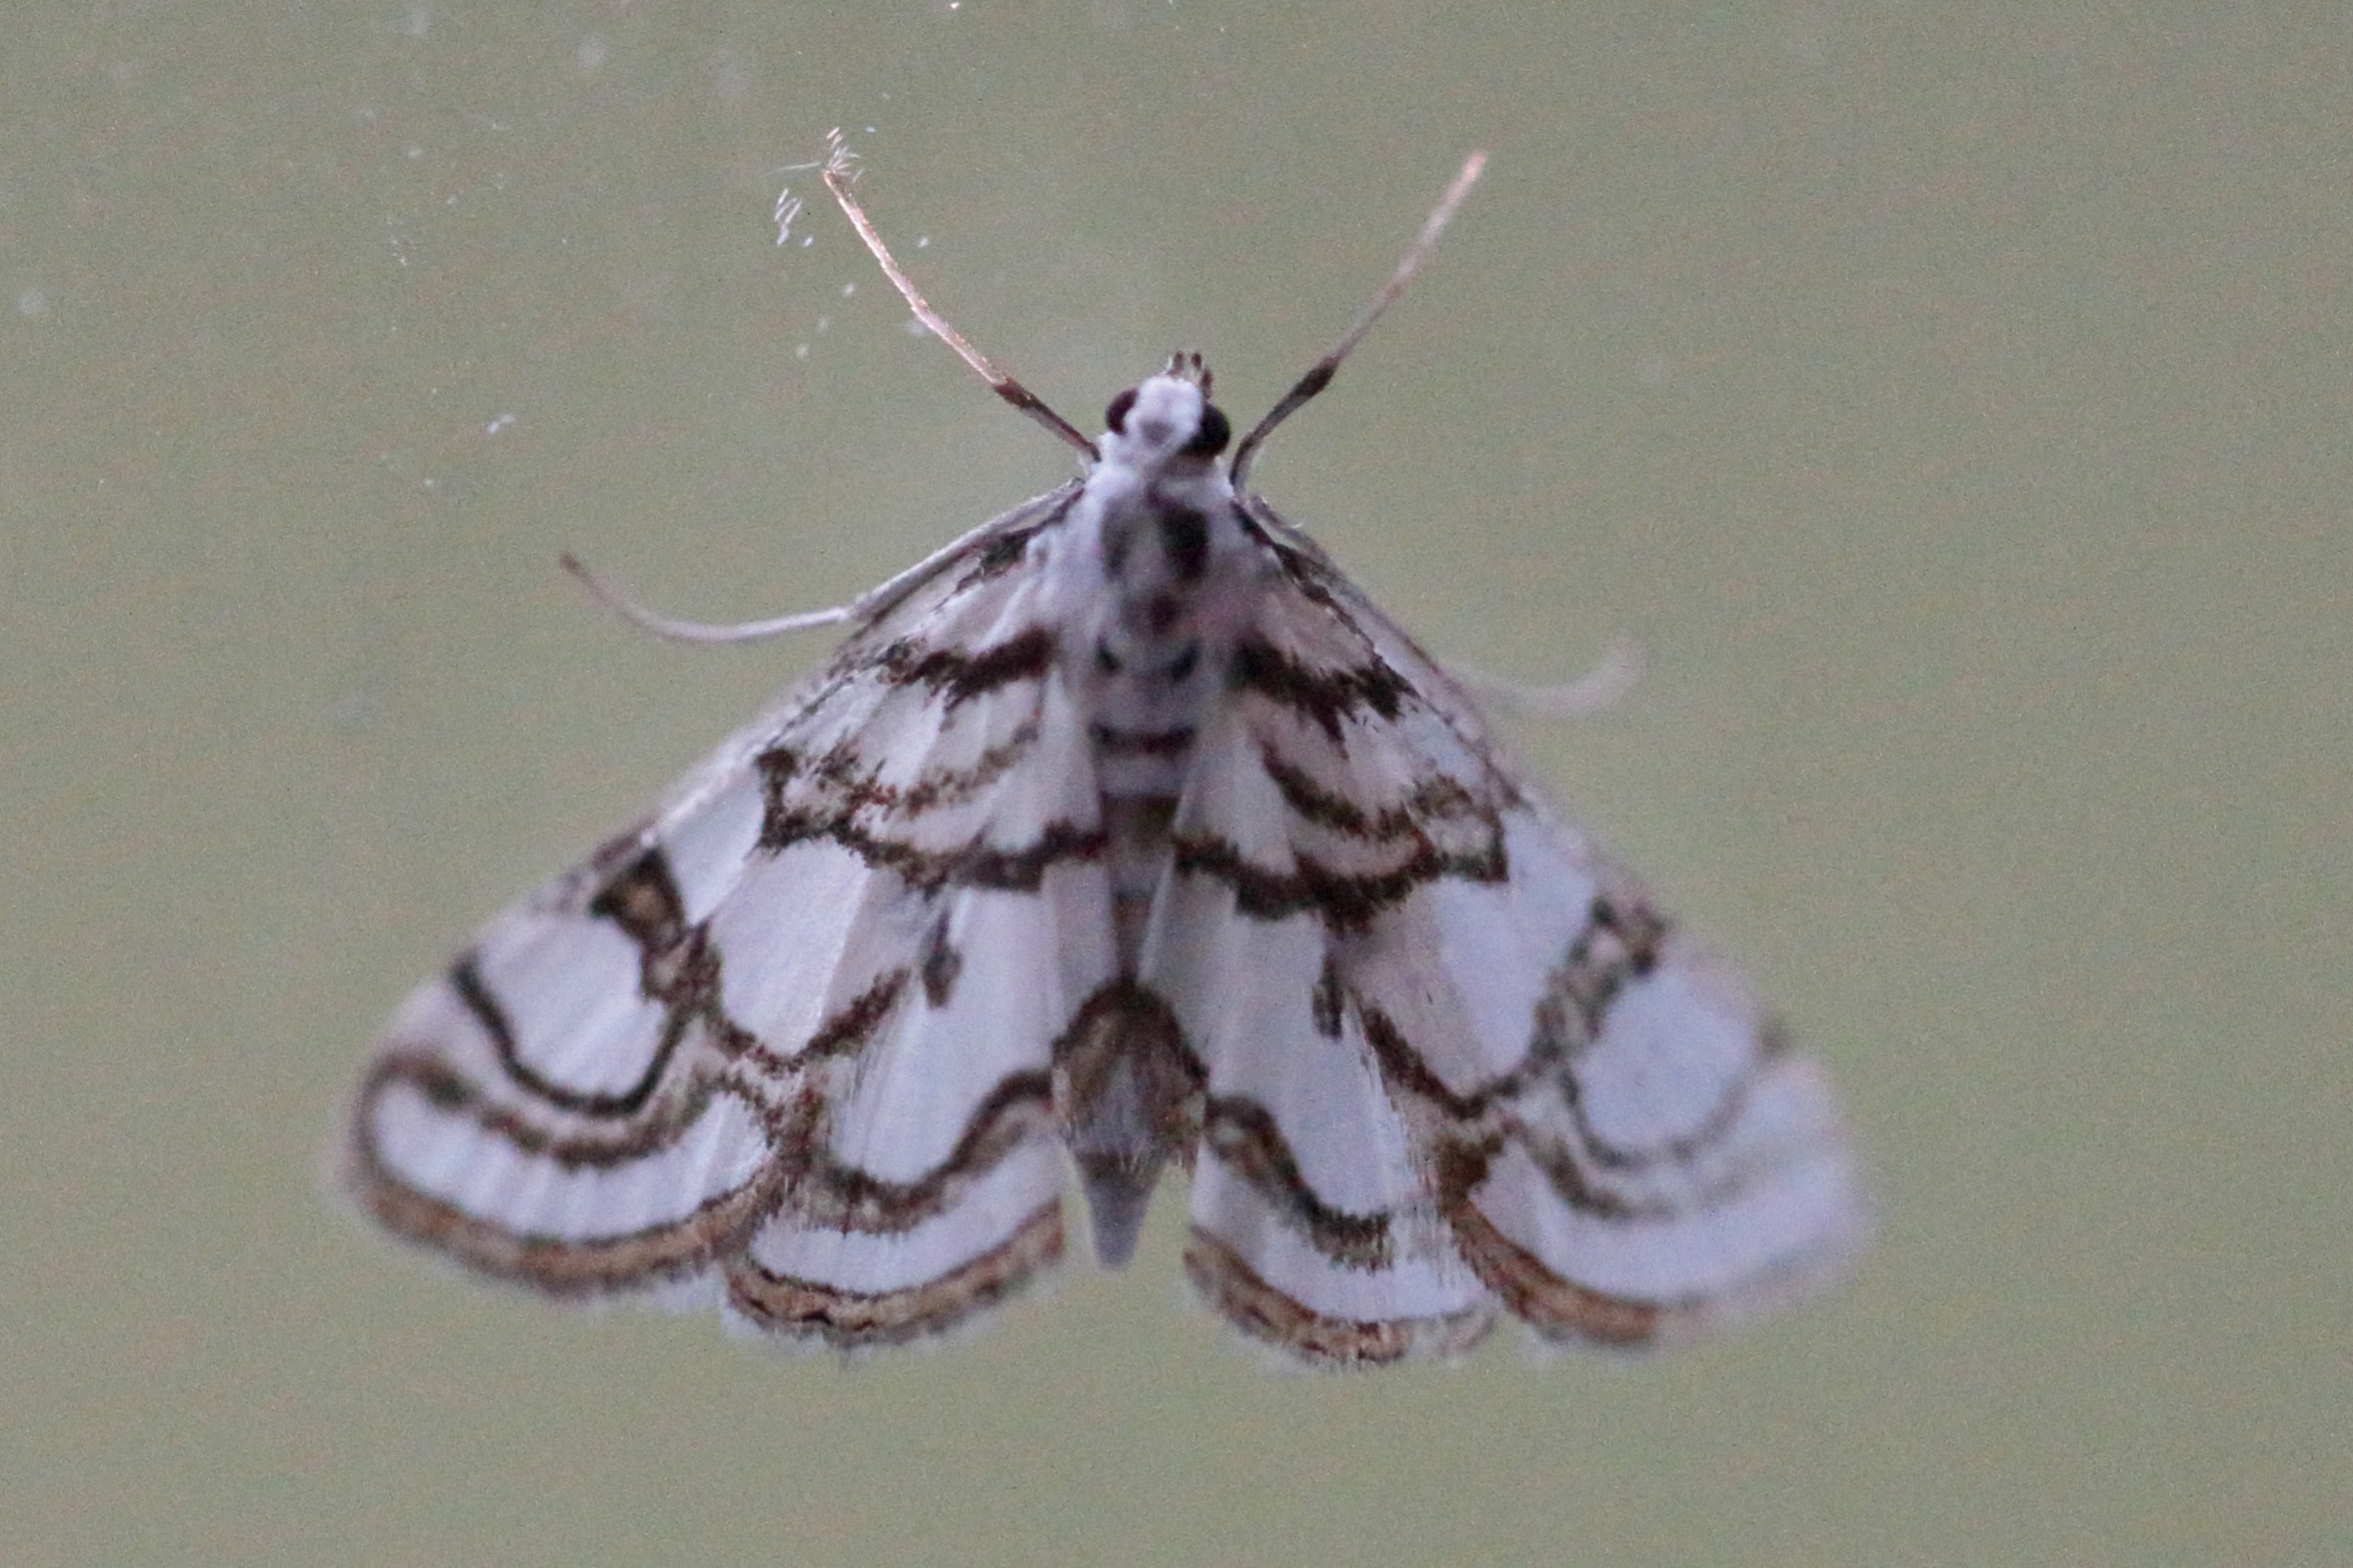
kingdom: Animalia
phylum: Arthropoda
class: Insecta
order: Lepidoptera
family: Crambidae
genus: Nymphula
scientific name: Nymphula nitidulata
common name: Lille porcelænsmøl
